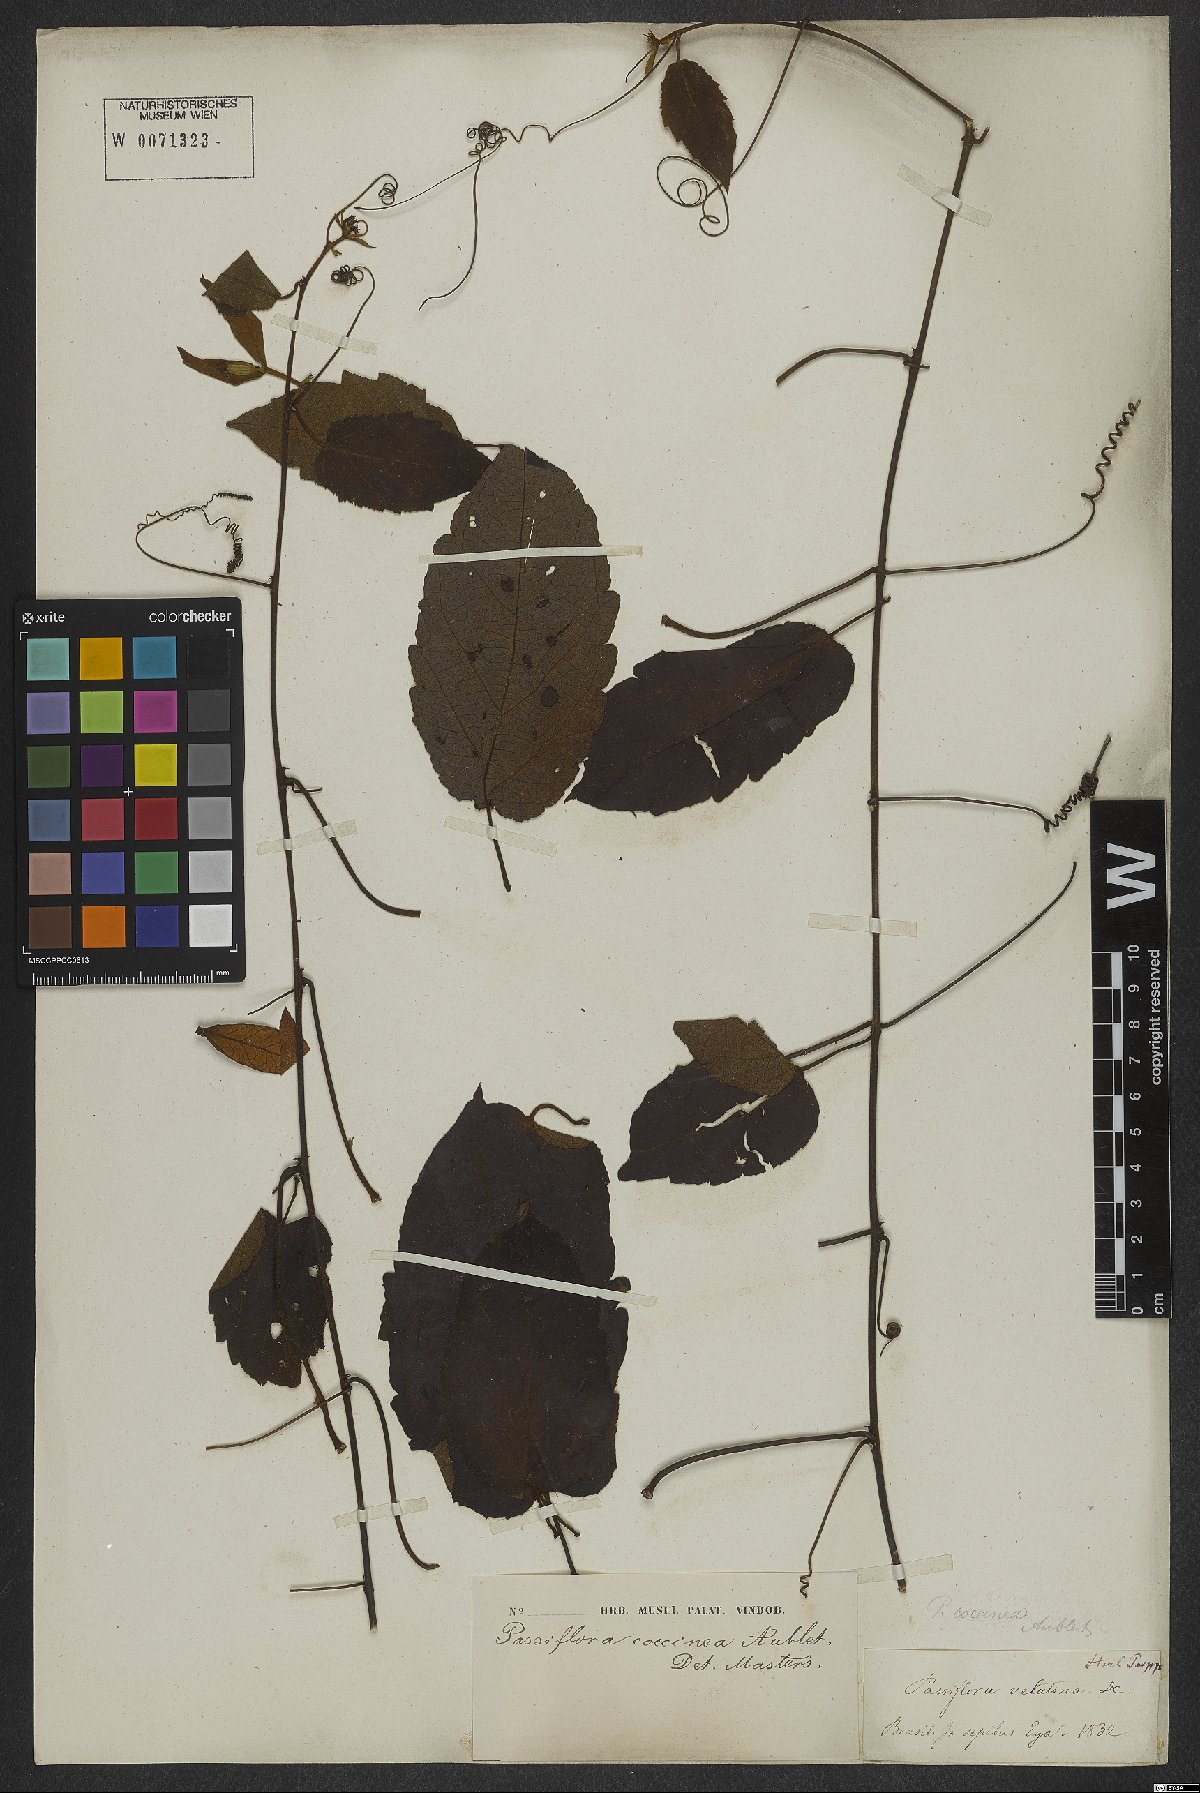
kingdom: Plantae
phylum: Tracheophyta
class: Magnoliopsida
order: Malpighiales
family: Passifloraceae
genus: Passiflora
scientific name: Passiflora coccinea
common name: Scarlet passionflower
